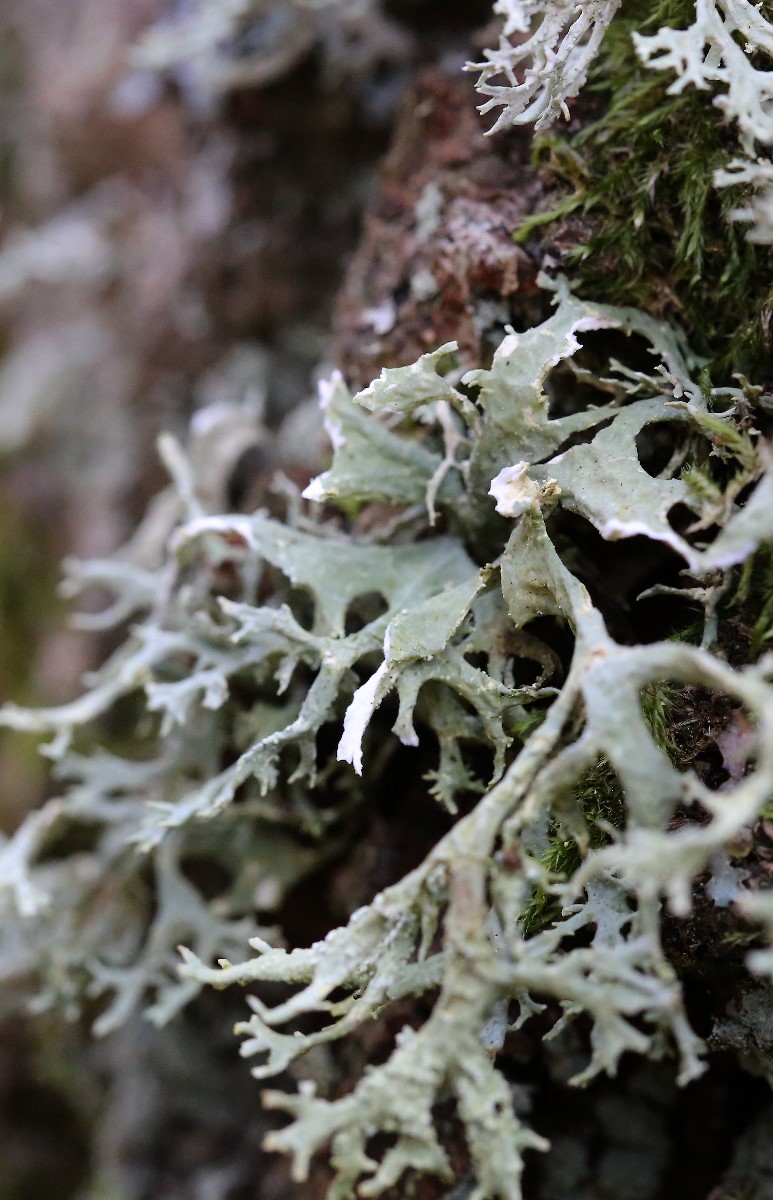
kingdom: Fungi
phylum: Ascomycota
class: Lecanoromycetes
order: Lecanorales
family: Parmeliaceae
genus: Evernia
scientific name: Evernia prunastri
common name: almindelig slåenlav
